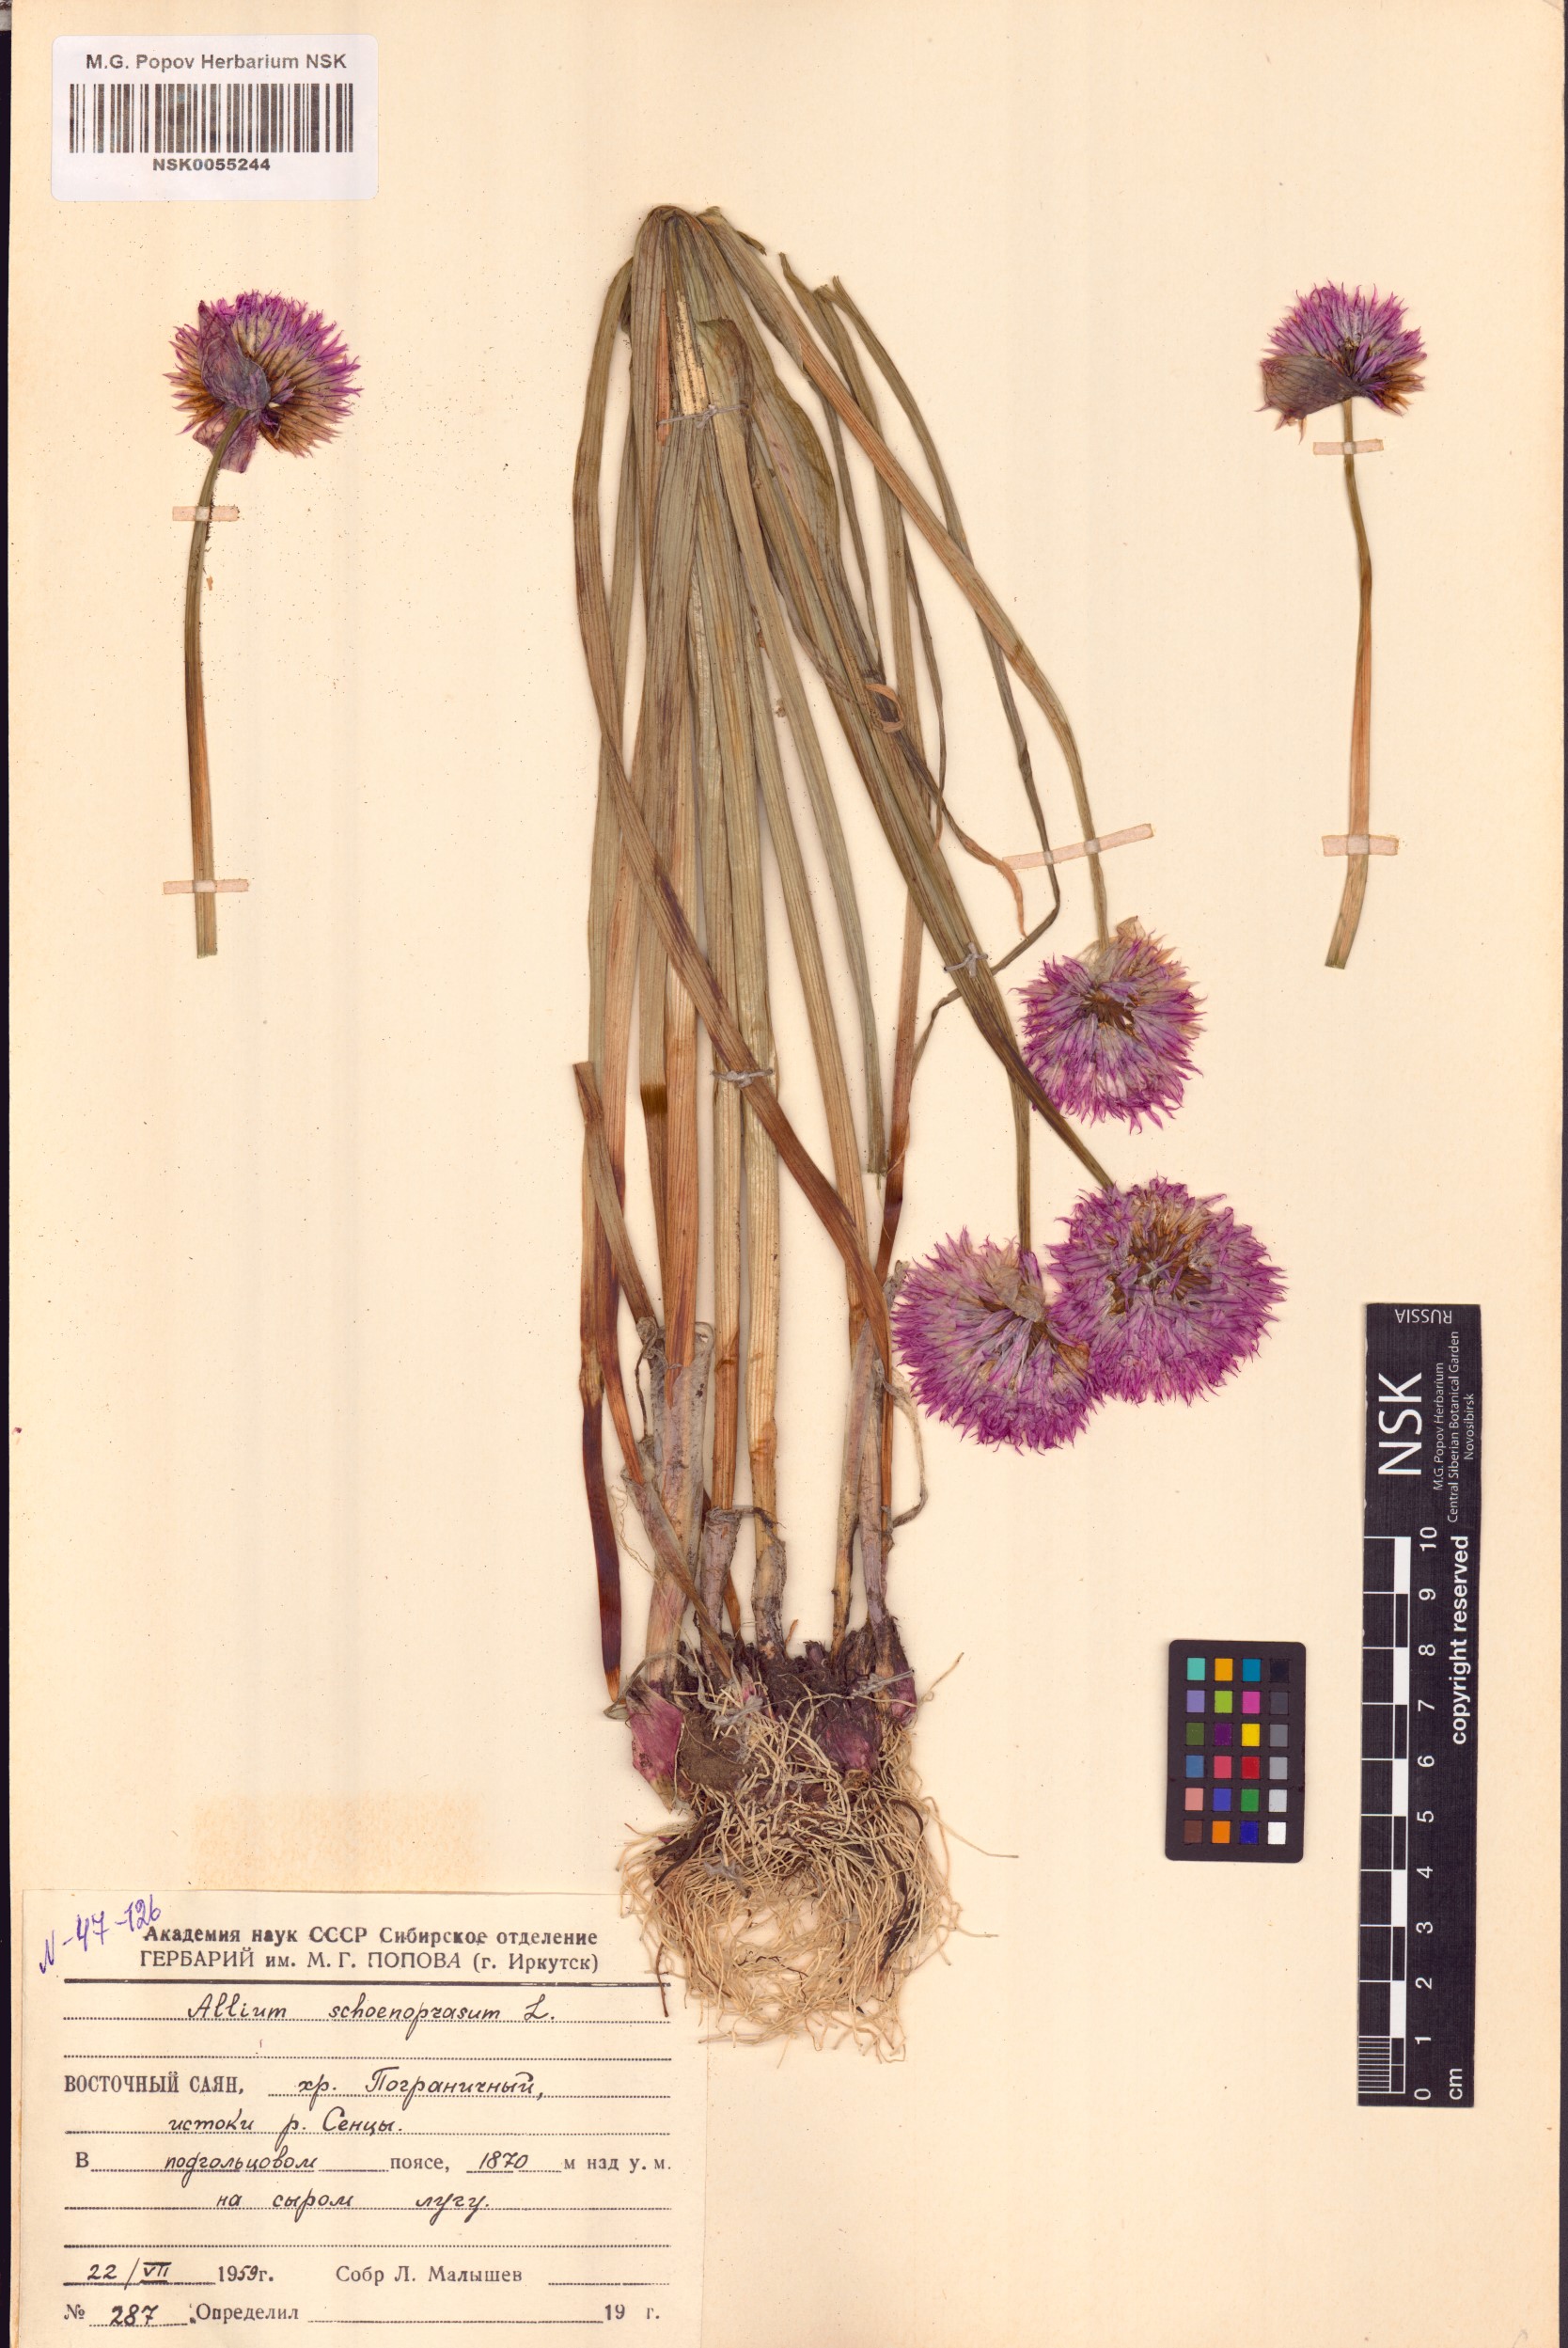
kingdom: Plantae
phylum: Tracheophyta
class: Liliopsida
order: Asparagales
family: Amaryllidaceae
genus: Allium
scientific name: Allium schoenoprasum
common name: Chives
